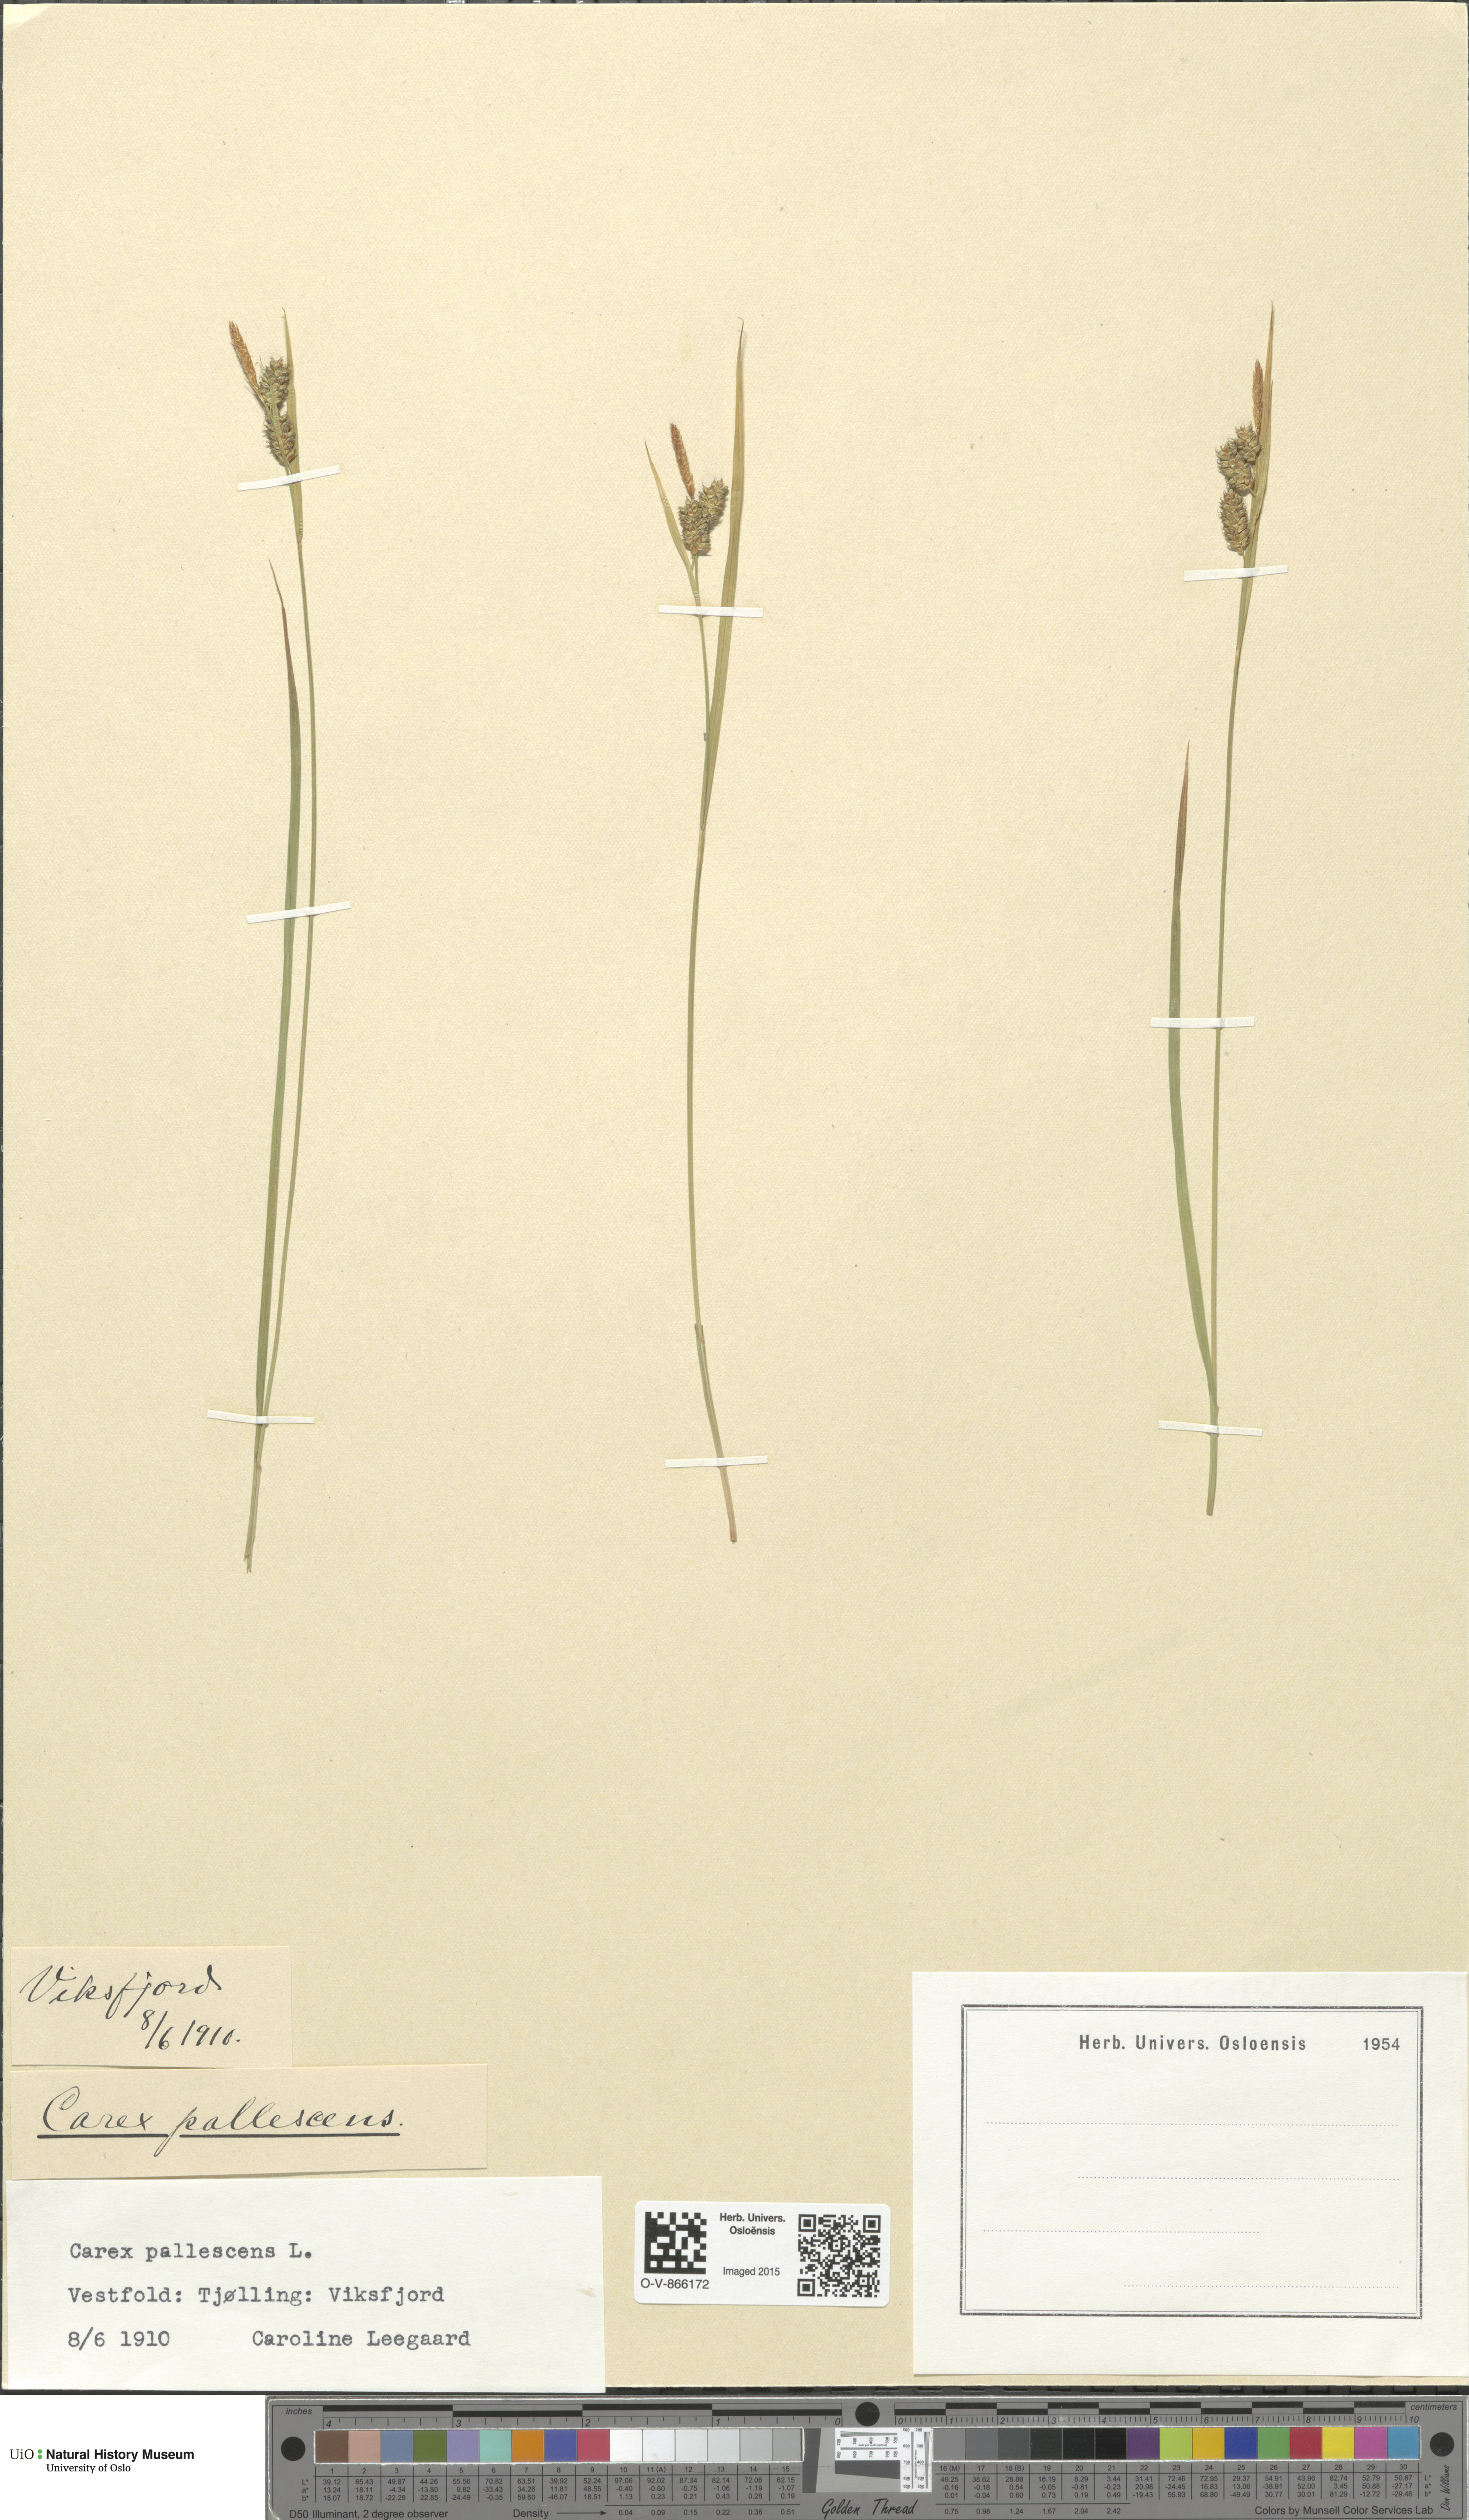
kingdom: Plantae
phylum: Tracheophyta
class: Liliopsida
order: Poales
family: Cyperaceae
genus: Carex
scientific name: Carex pallescens
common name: Pale sedge
